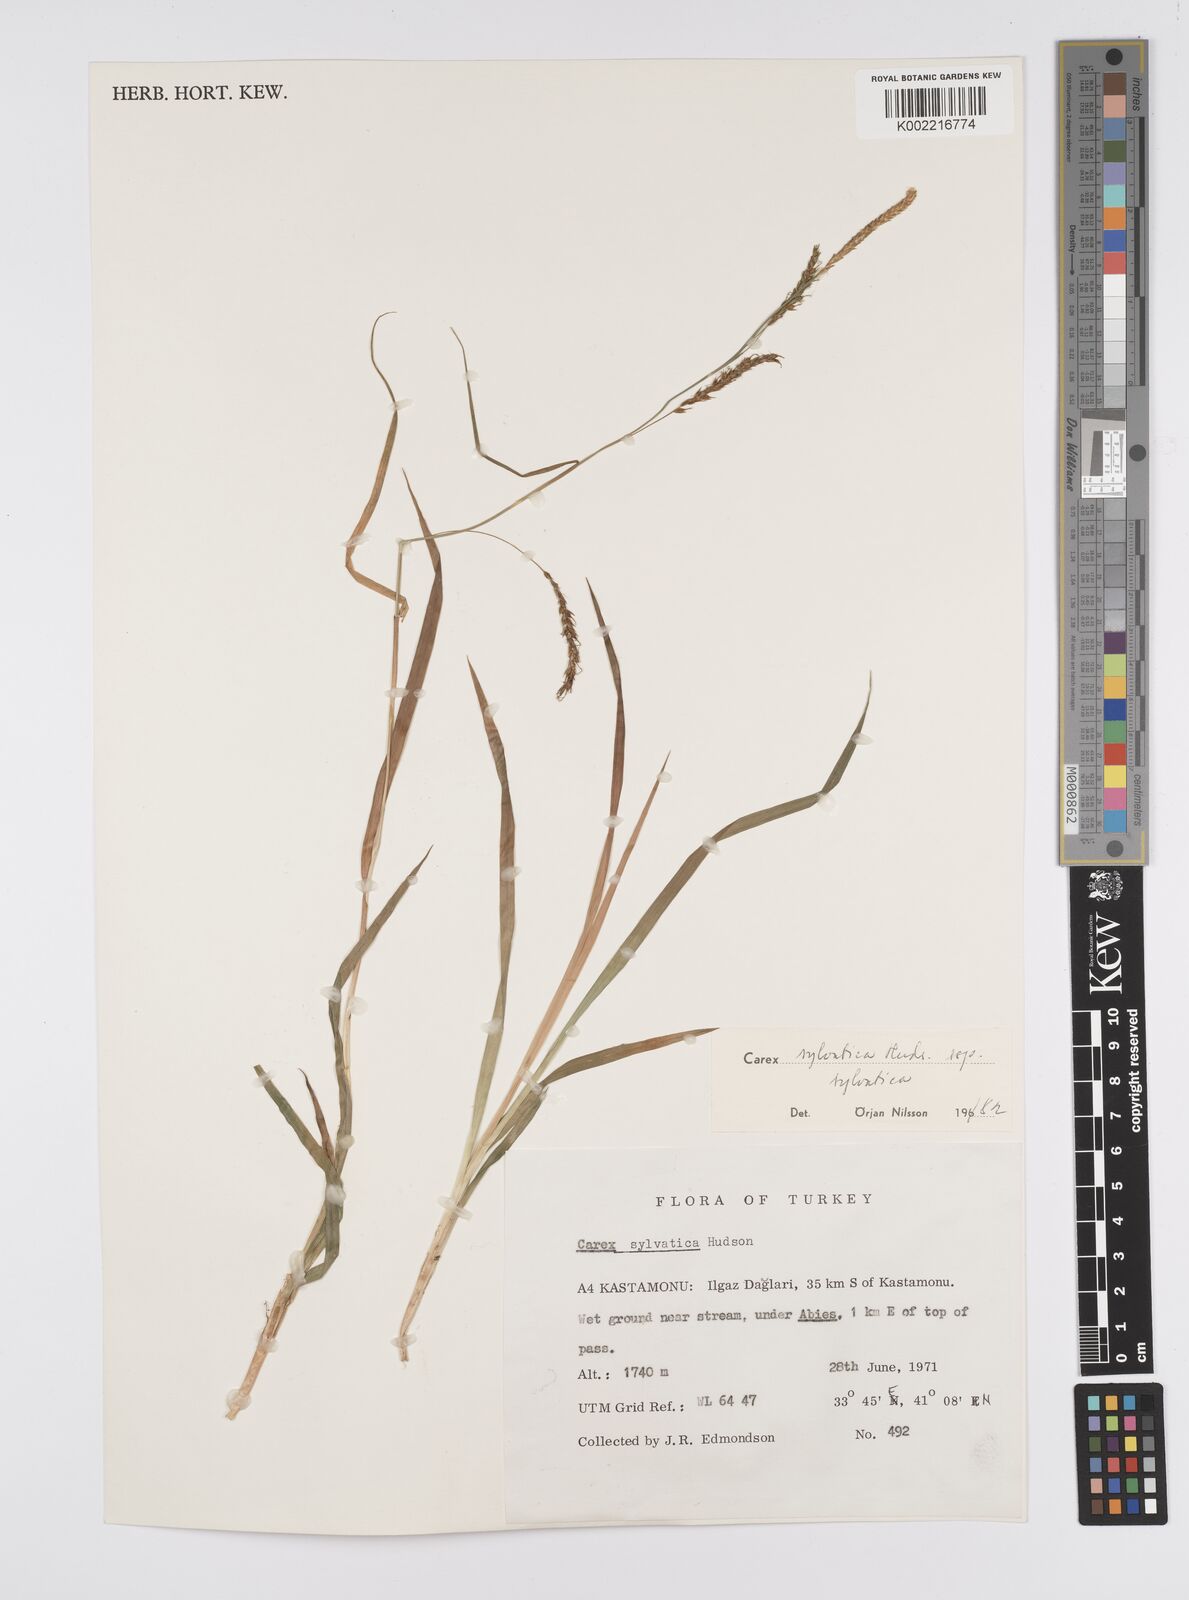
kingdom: Plantae
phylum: Tracheophyta
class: Liliopsida
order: Poales
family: Cyperaceae
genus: Carex
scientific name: Carex sylvatica
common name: Wood-sedge
